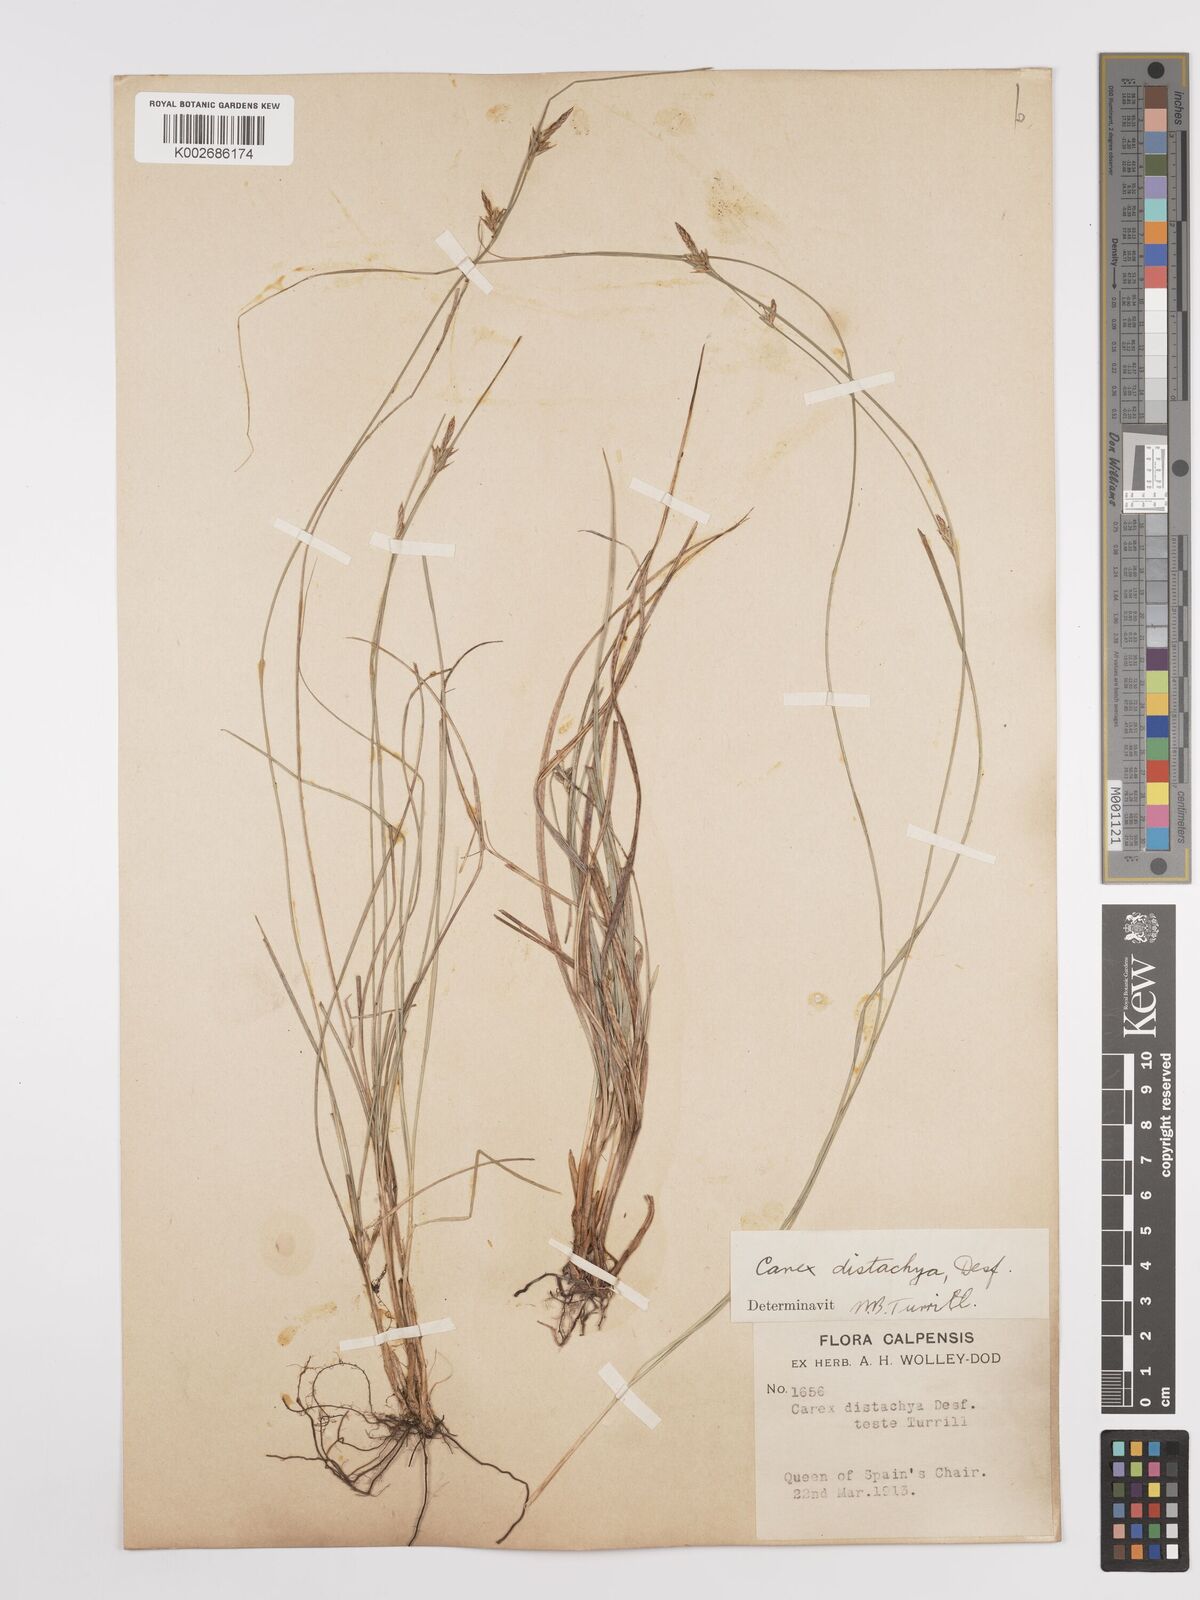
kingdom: Plantae
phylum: Tracheophyta
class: Liliopsida
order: Poales
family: Cyperaceae
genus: Carex
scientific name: Carex distachya
